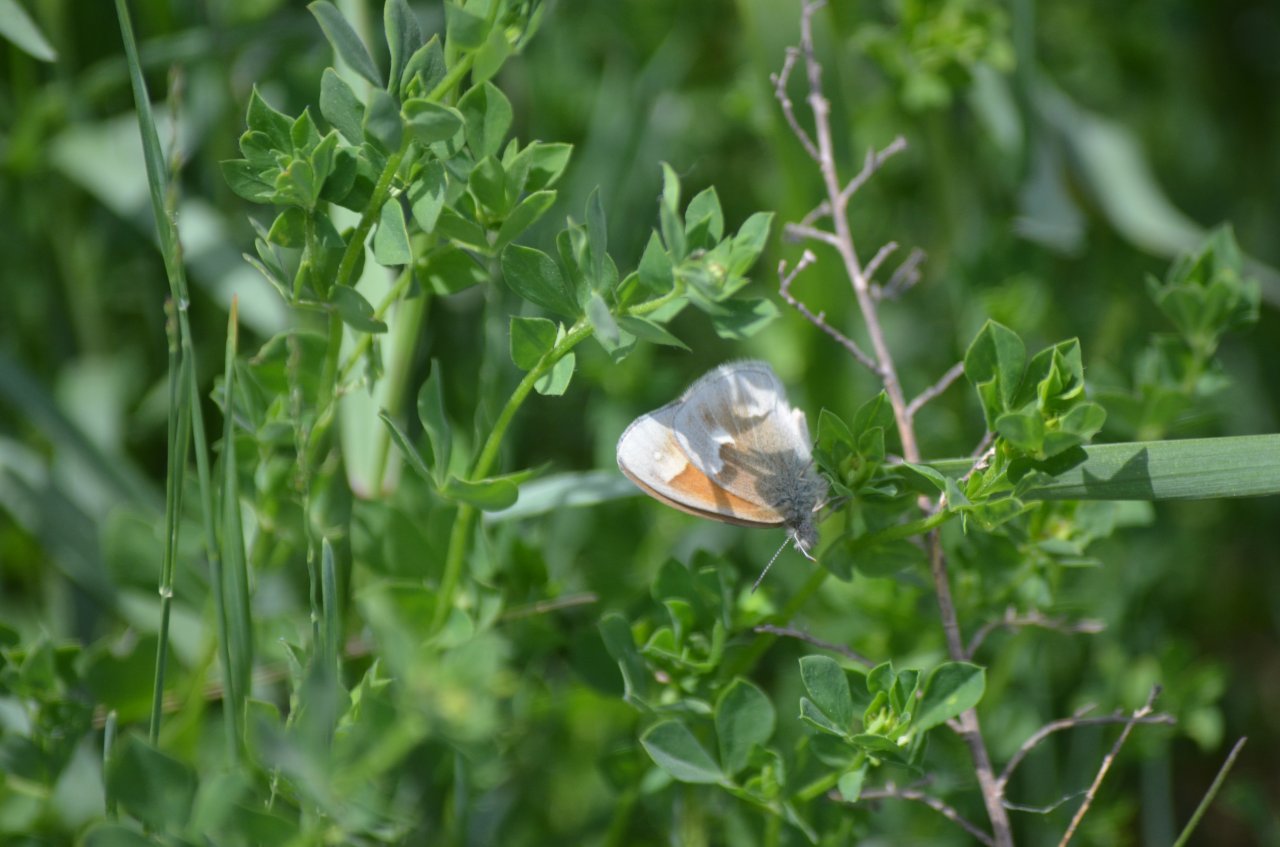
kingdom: Animalia
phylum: Arthropoda
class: Insecta
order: Lepidoptera
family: Nymphalidae
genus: Coenonympha
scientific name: Coenonympha tullia
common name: Large Heath
